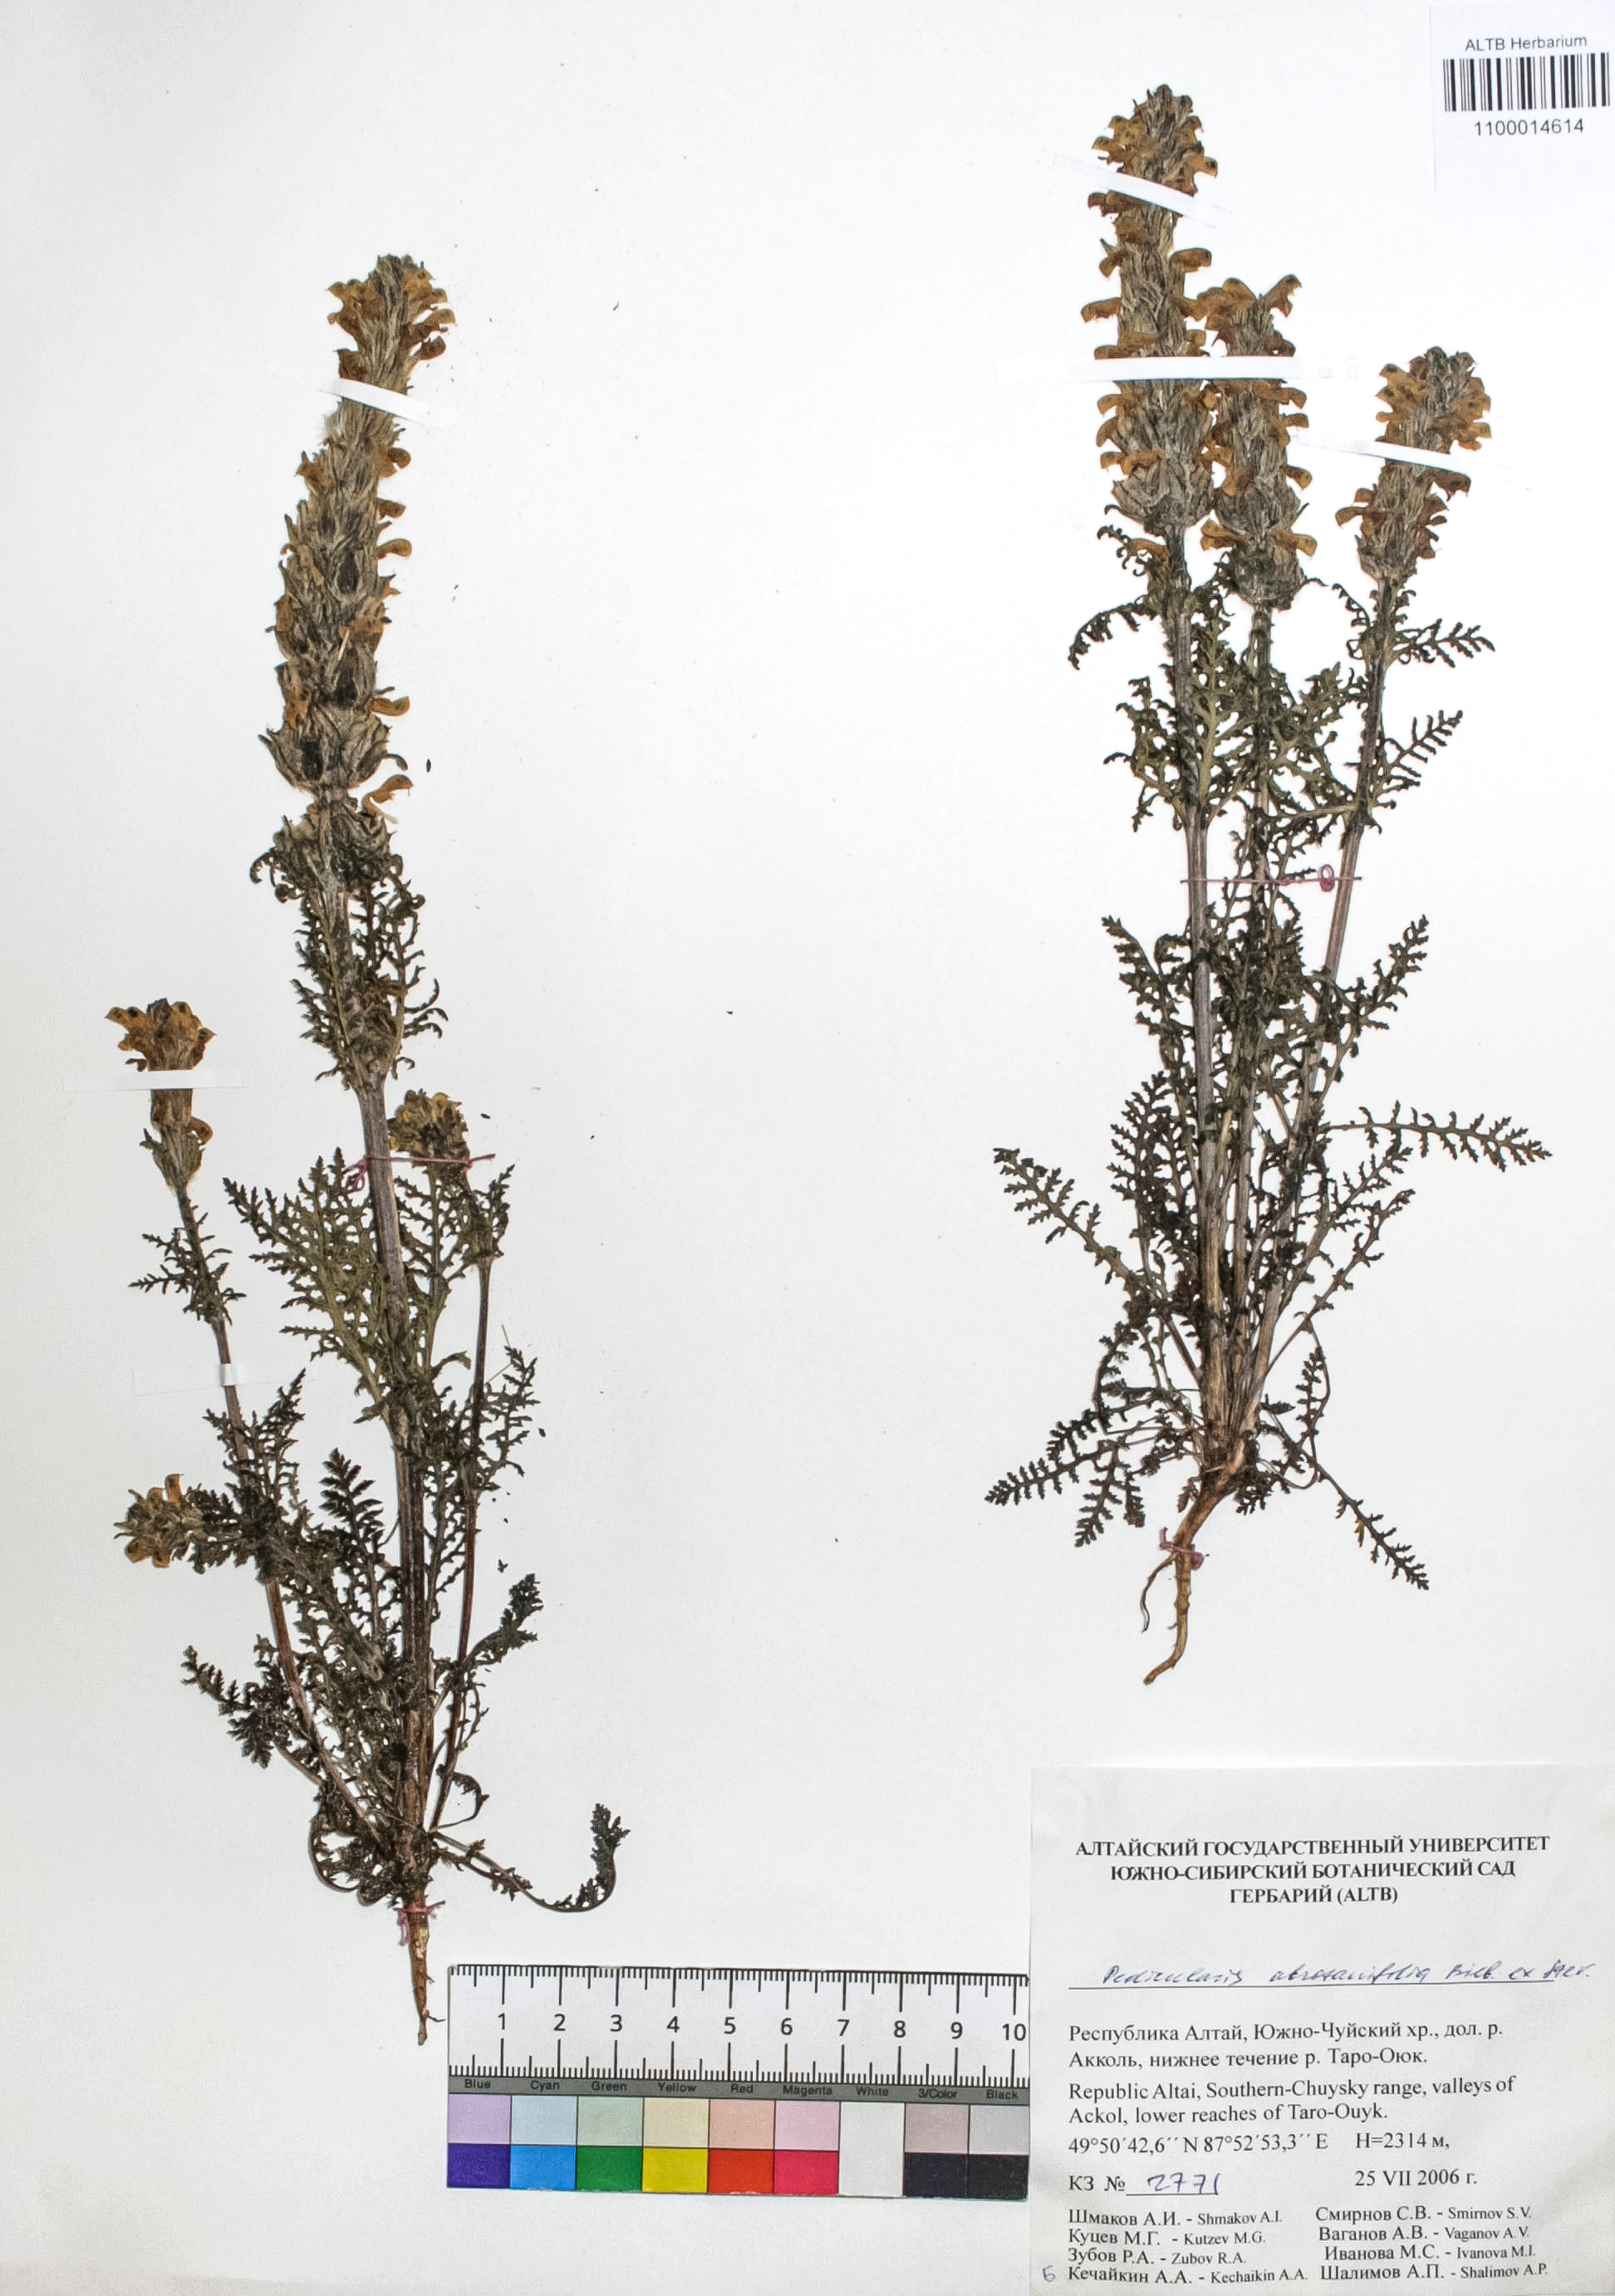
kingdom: Plantae
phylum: Tracheophyta
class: Magnoliopsida
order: Lamiales
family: Orobanchaceae
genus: Pedicularis
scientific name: Pedicularis abrotanifolia
